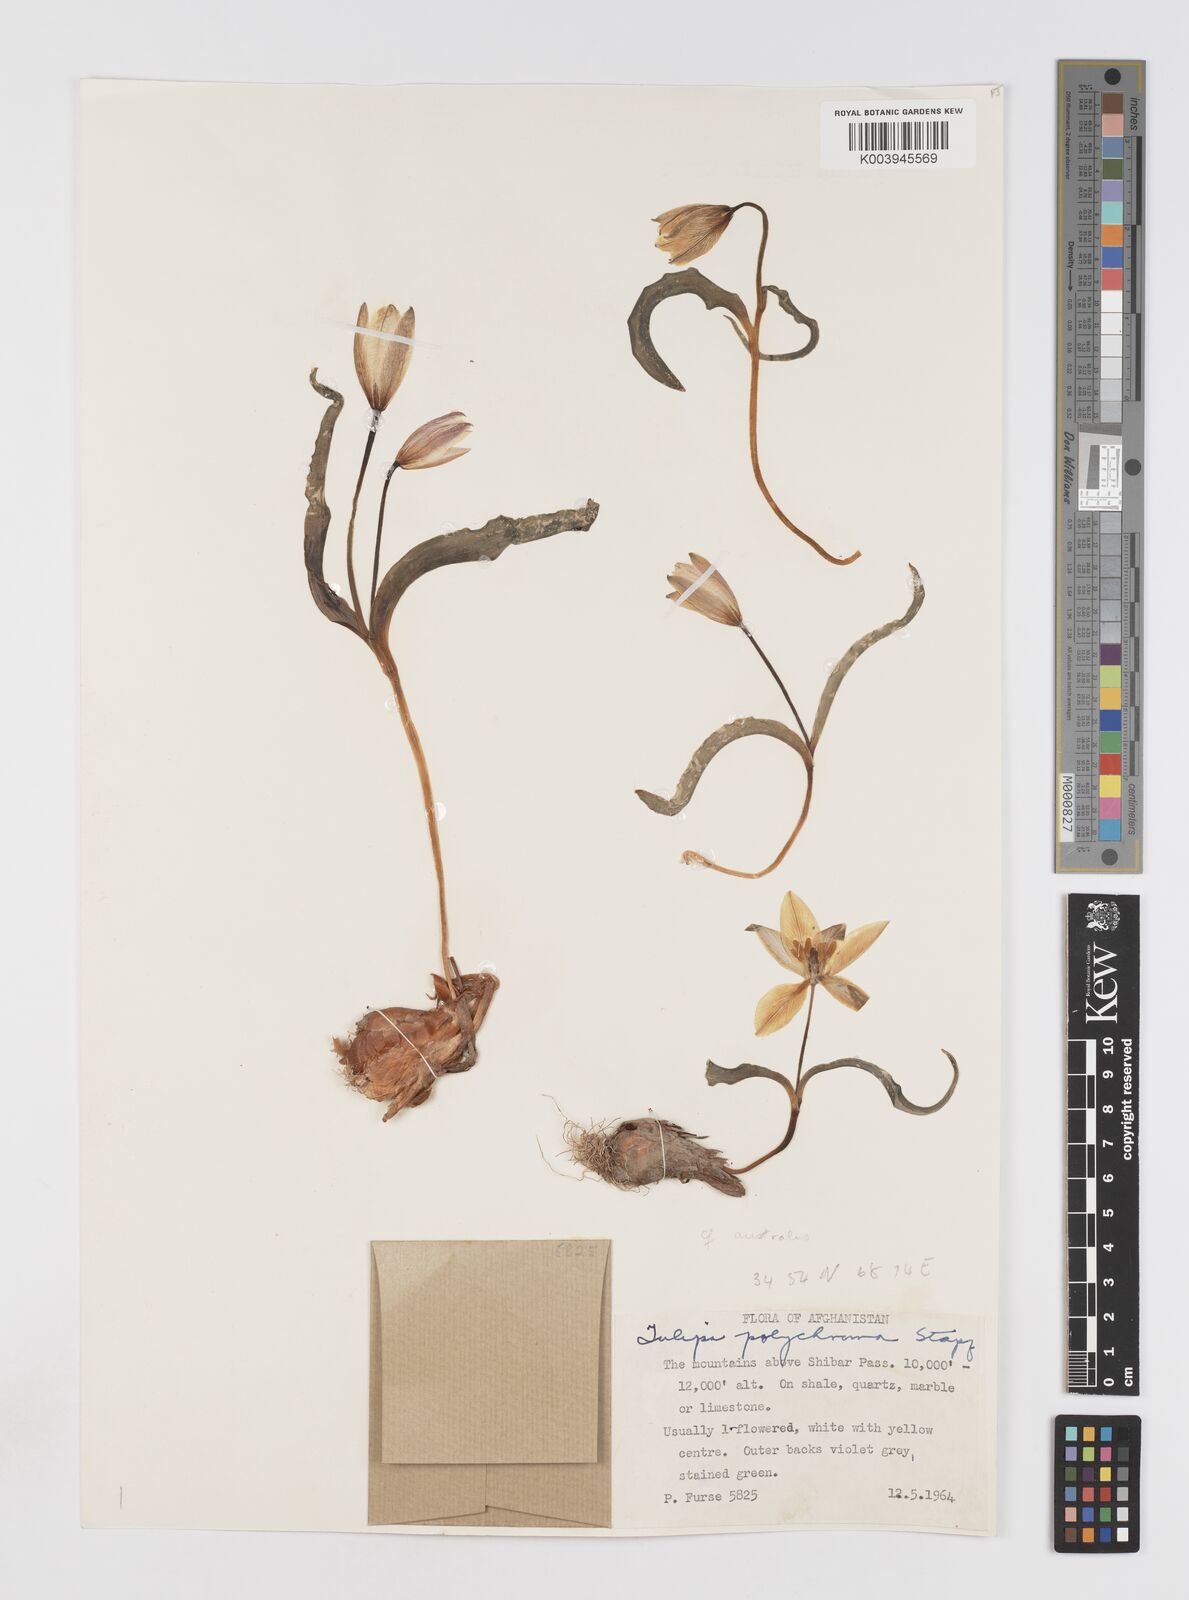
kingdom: Plantae
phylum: Tracheophyta
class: Liliopsida
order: Liliales
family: Liliaceae
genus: Tulipa
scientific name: Tulipa biflora
